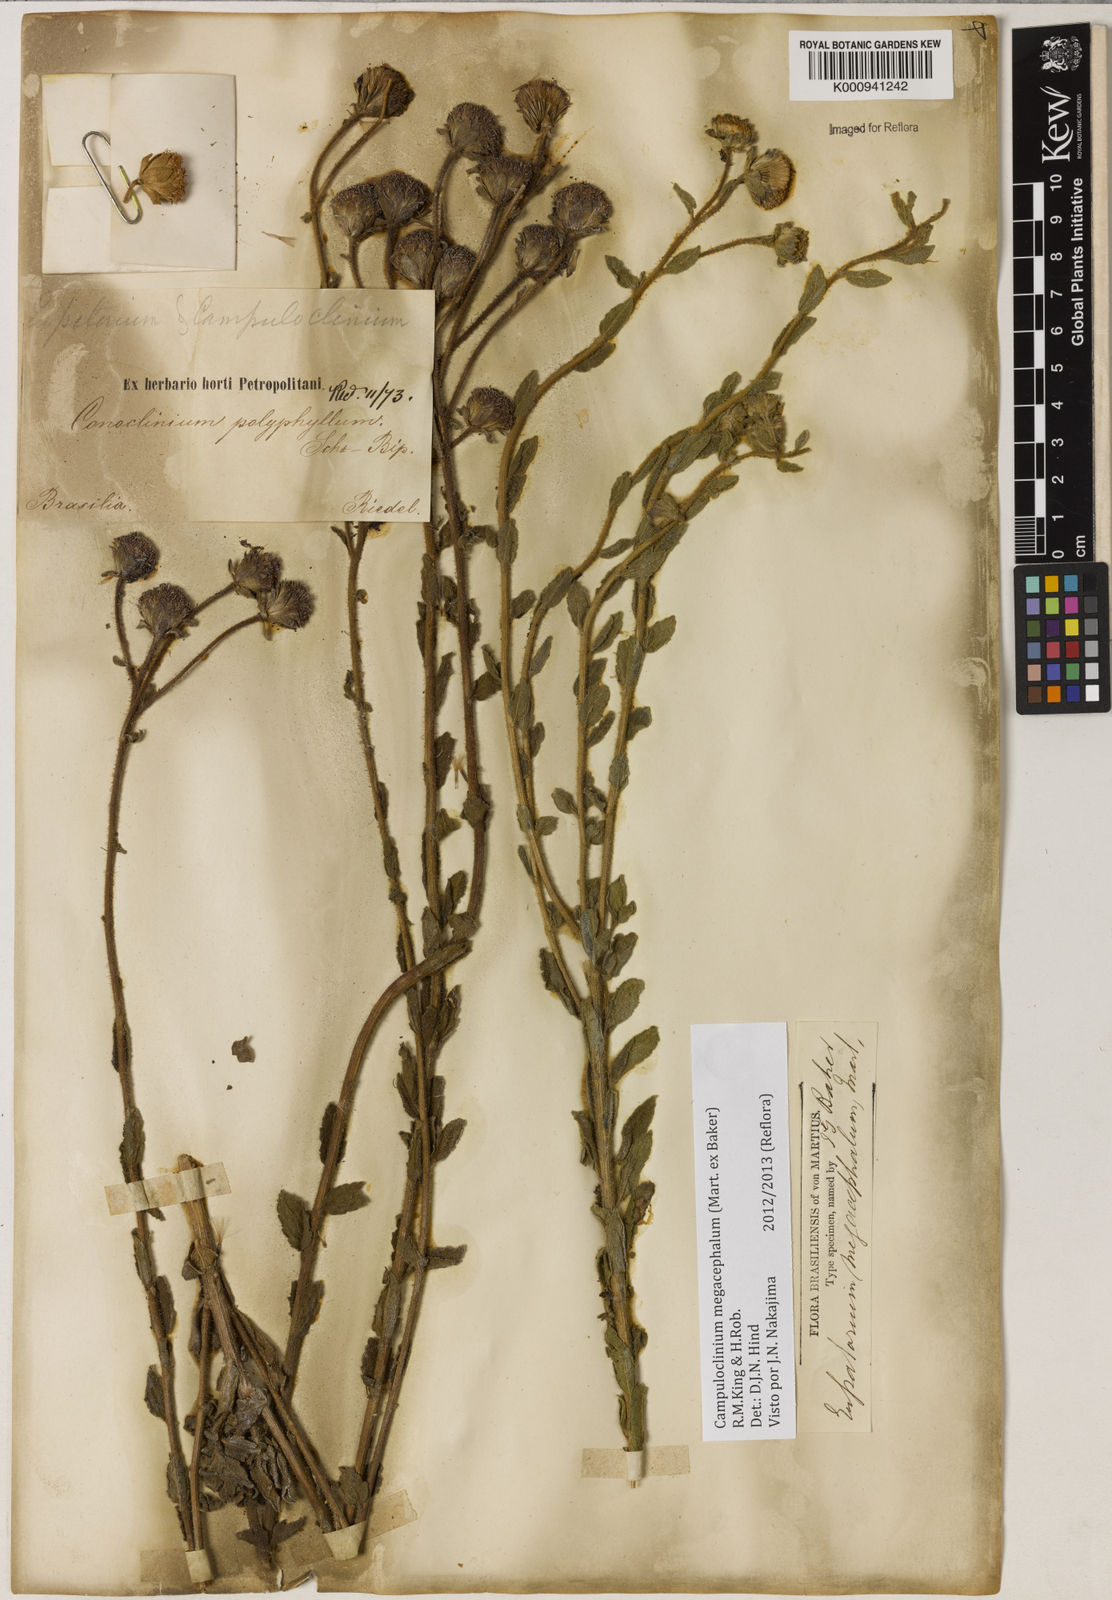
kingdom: Plantae
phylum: Tracheophyta
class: Magnoliopsida
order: Asterales
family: Asteraceae
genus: Campuloclinium
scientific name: Campuloclinium megacephalum
